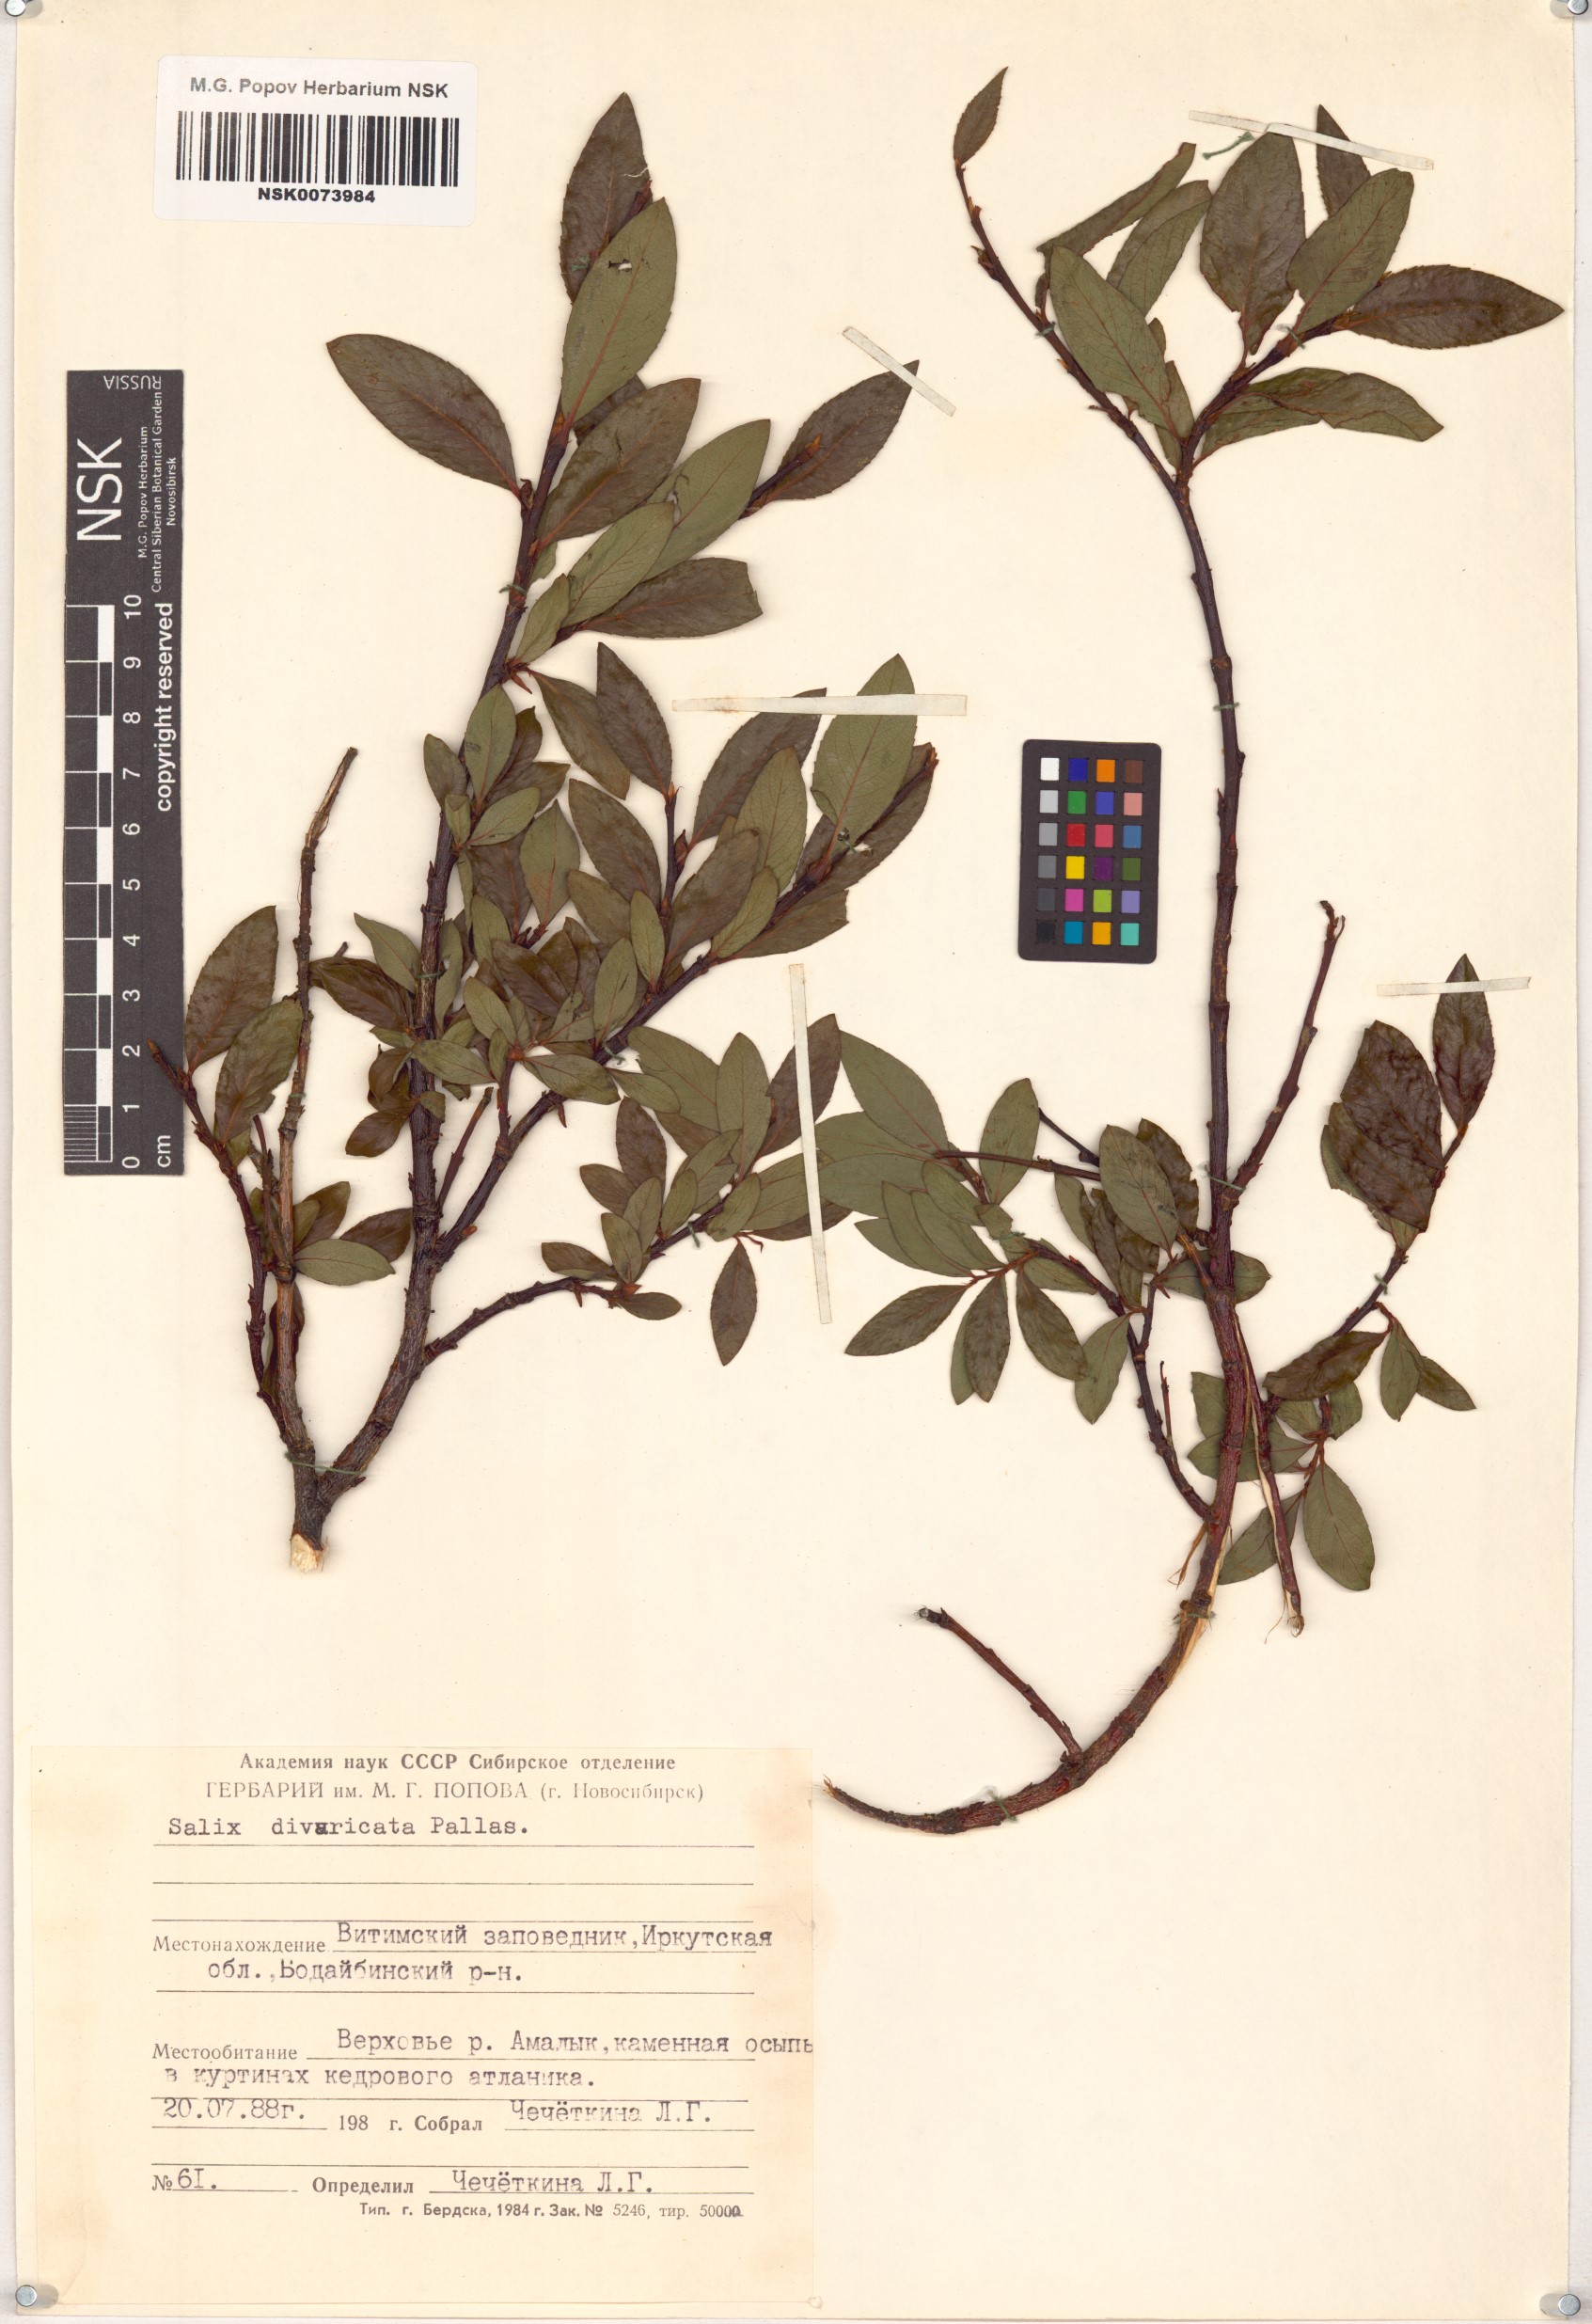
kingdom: Plantae
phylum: Tracheophyta
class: Magnoliopsida
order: Malpighiales
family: Salicaceae
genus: Salix
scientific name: Salix divaricata
